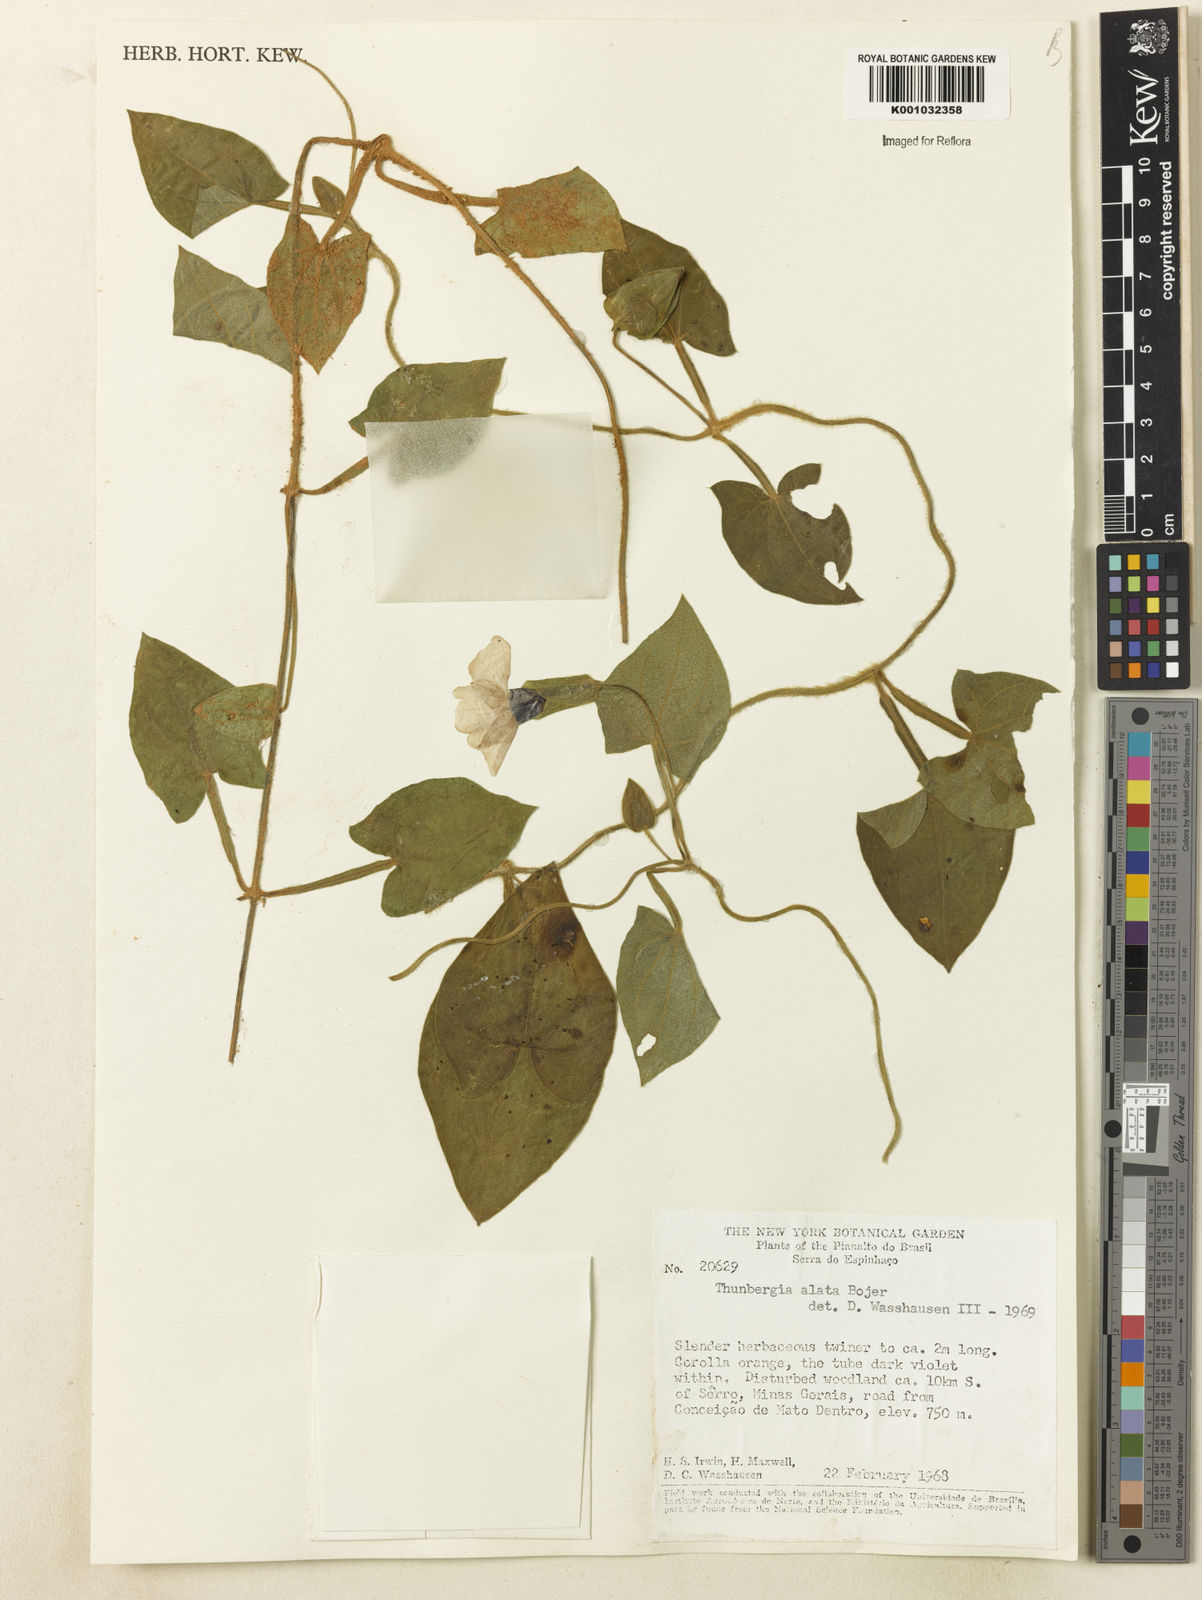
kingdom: Plantae
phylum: Tracheophyta
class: Magnoliopsida
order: Lamiales
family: Acanthaceae
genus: Thunbergia
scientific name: Thunbergia alata
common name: Blackeyed susan vine
